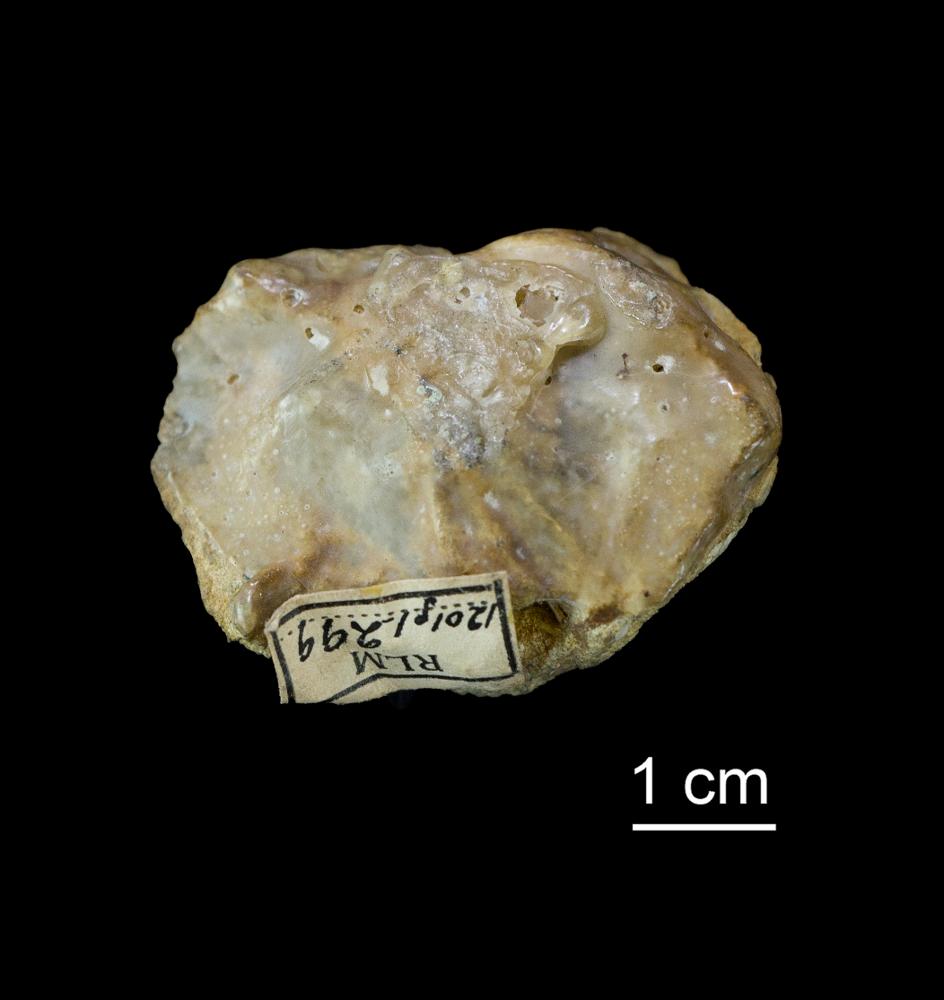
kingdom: Animalia
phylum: Bryozoa
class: Stenolaemata
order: Cystoporida
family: Acanthoceramoporellidae
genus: Minutolunaria
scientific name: Minutolunaria rhombica
